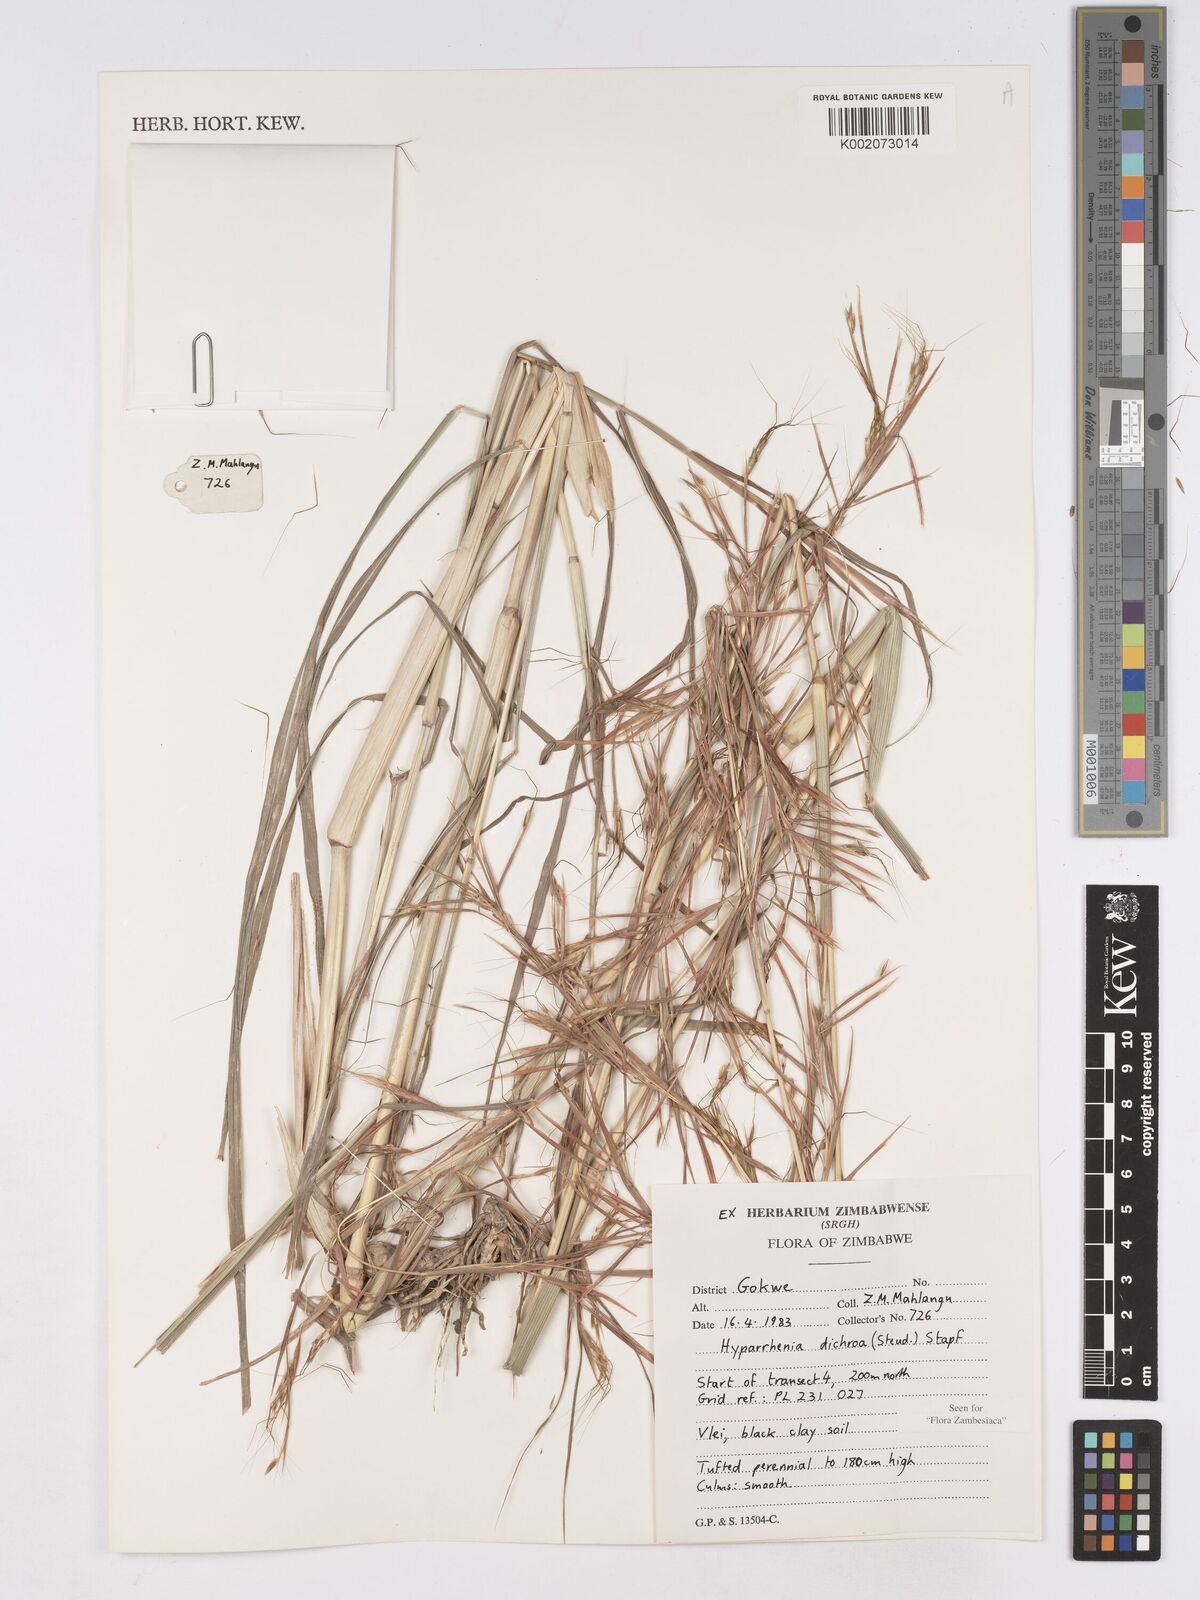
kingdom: Plantae
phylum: Tracheophyta
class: Liliopsida
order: Poales
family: Poaceae
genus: Hyparrhenia
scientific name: Hyparrhenia dichroa
